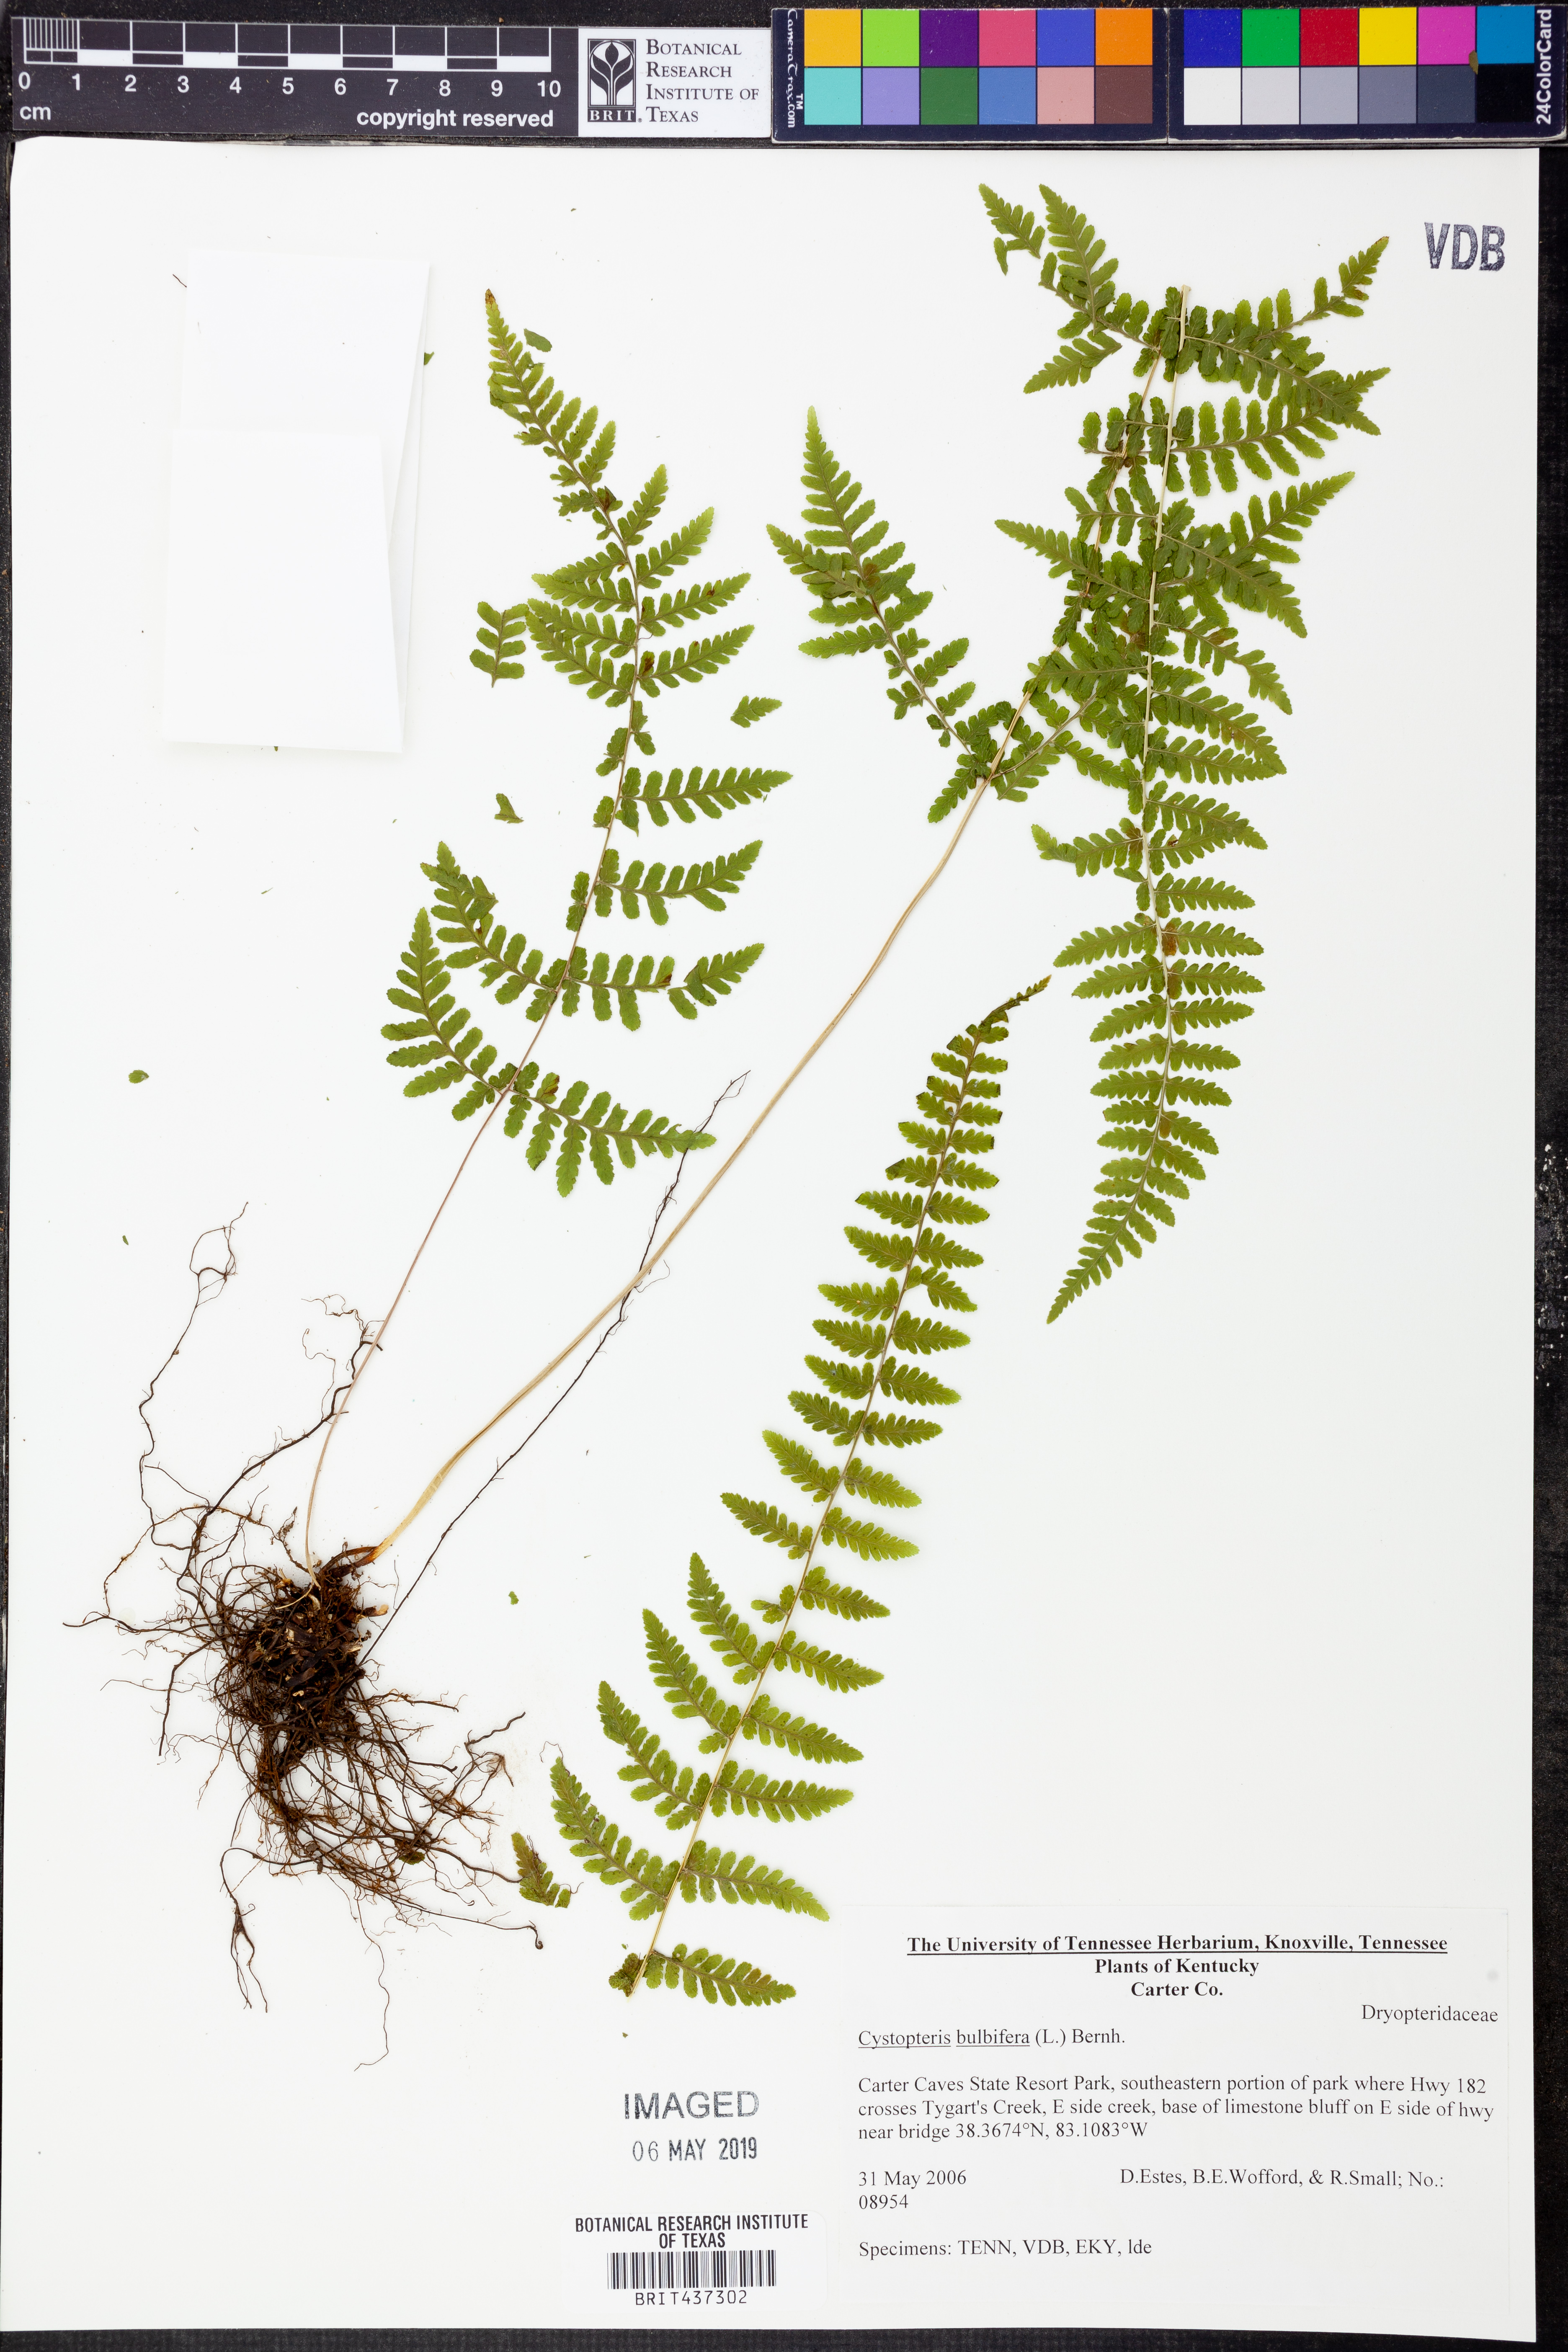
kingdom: Plantae
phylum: Tracheophyta
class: Polypodiopsida
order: Polypodiales
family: Cystopteridaceae
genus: Cystopteris
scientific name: Cystopteris bulbifera
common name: Bulblet bladder fern
